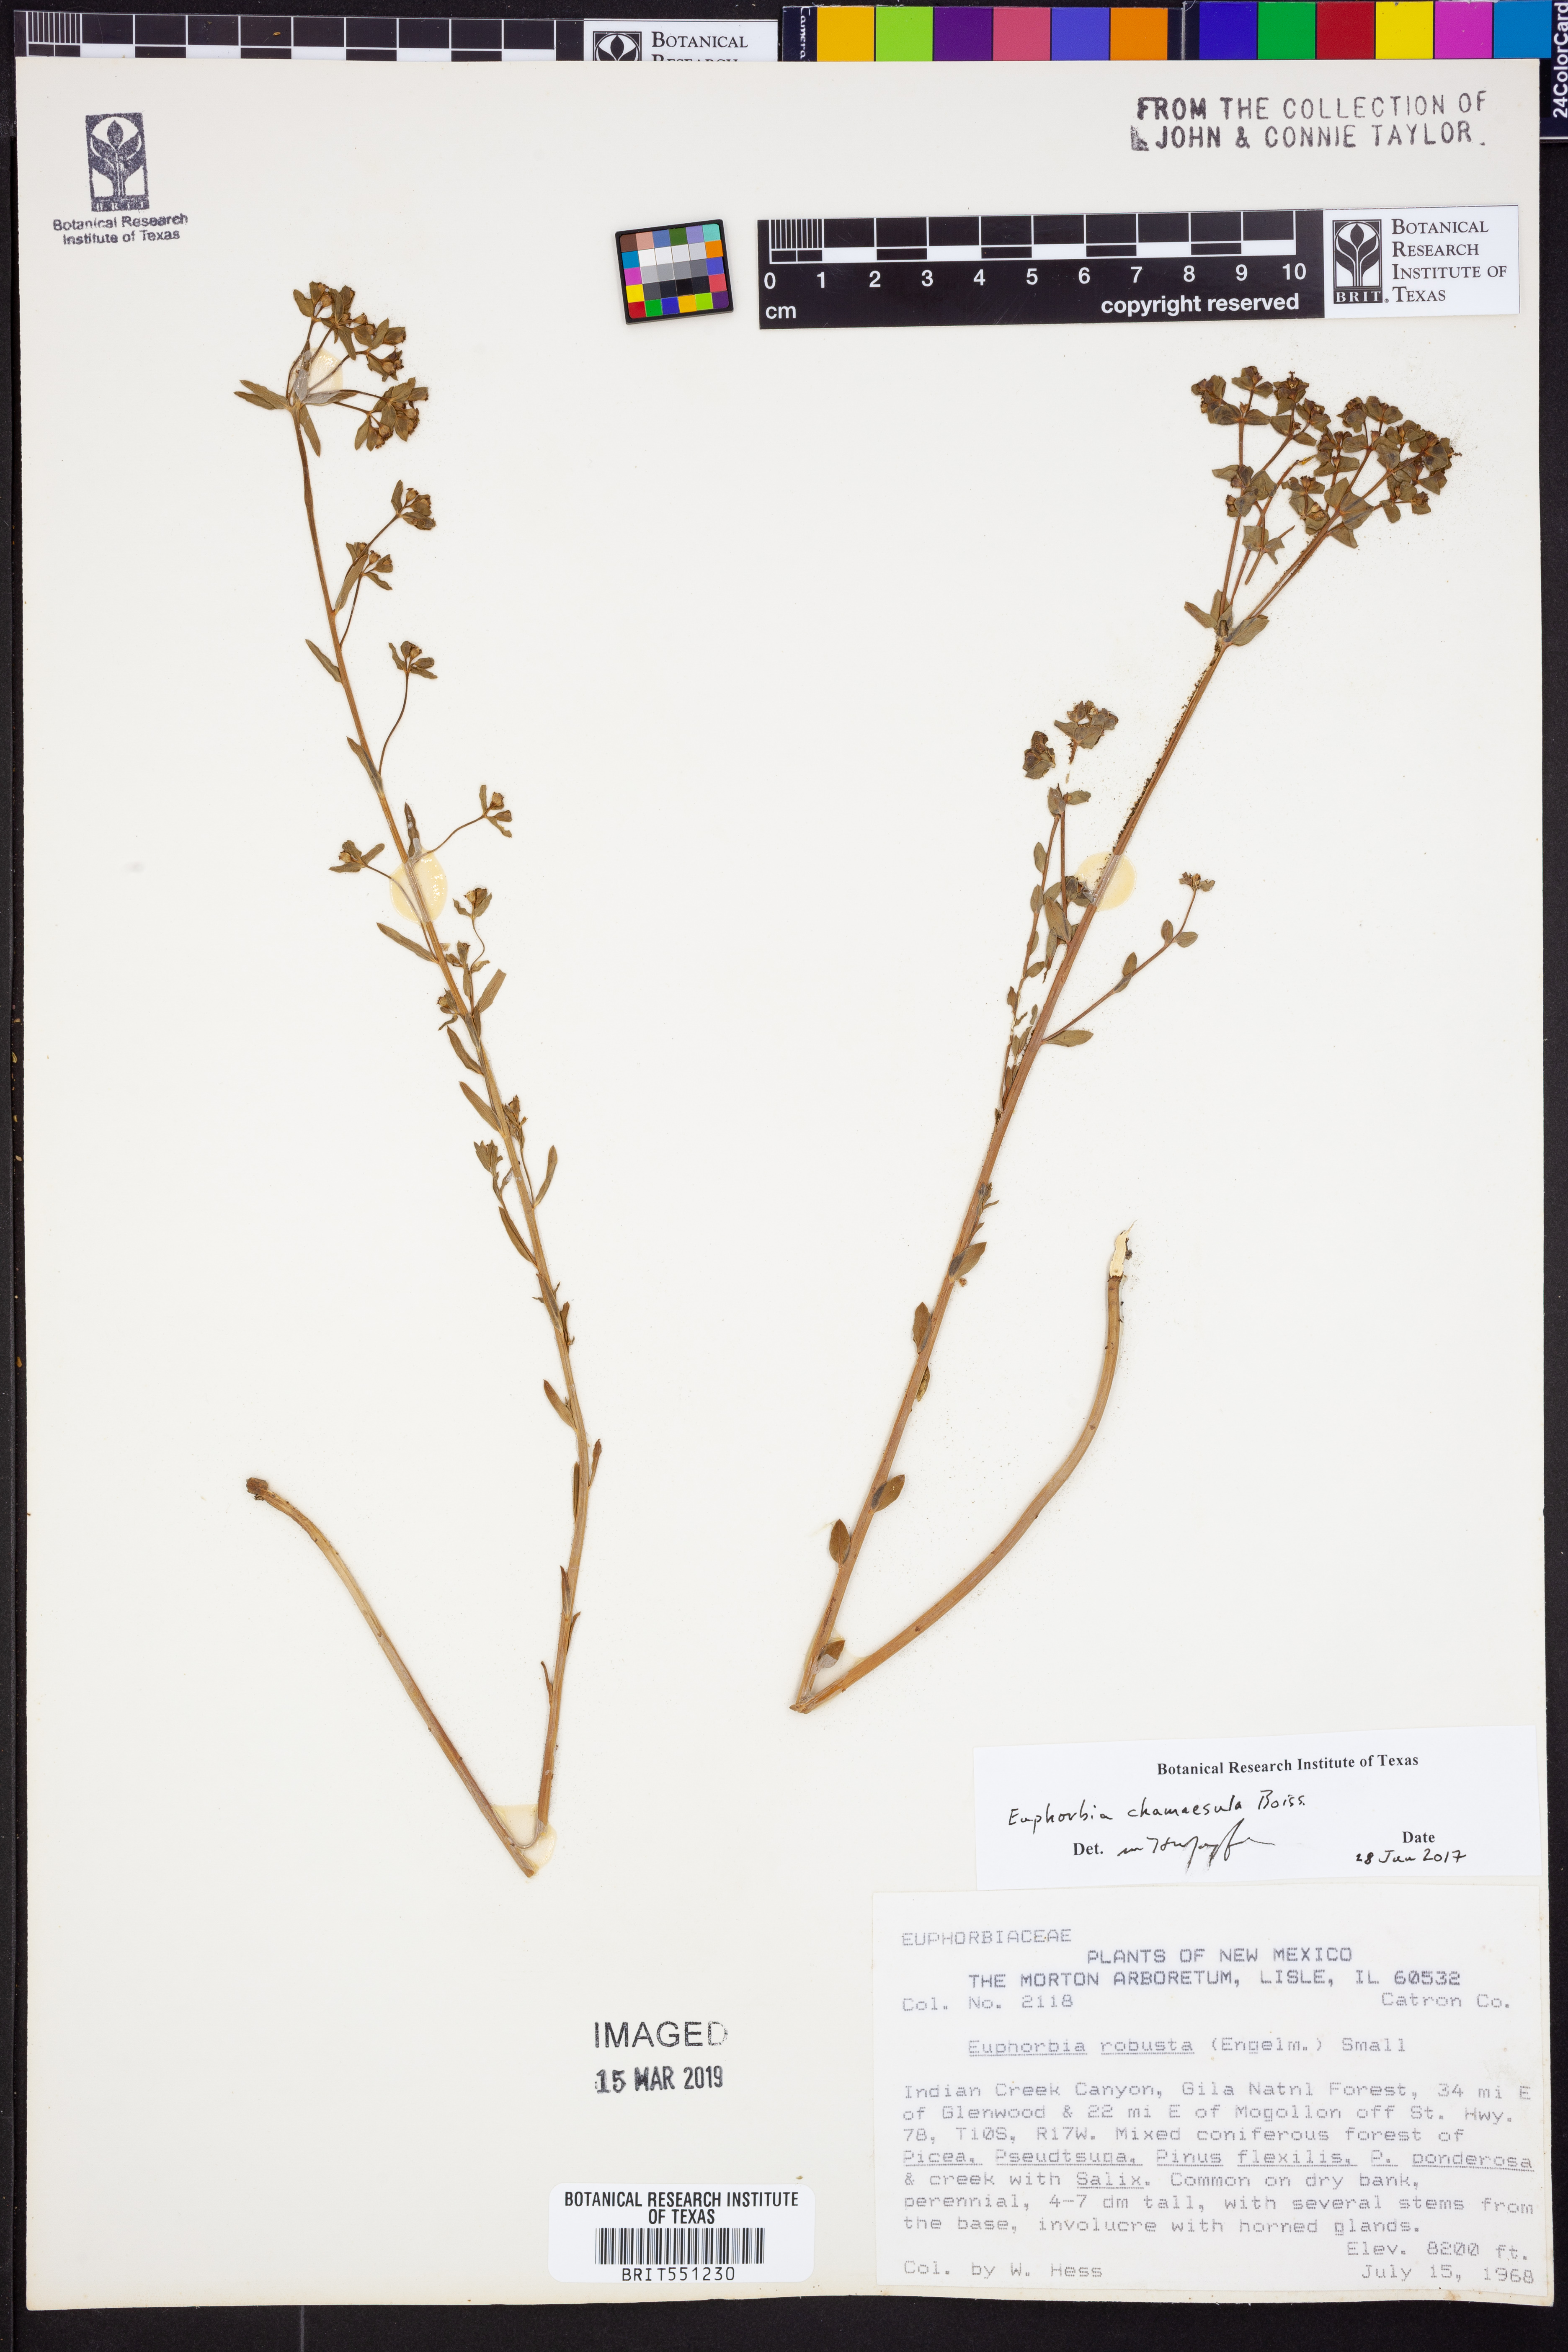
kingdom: Plantae
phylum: Tracheophyta
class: Magnoliopsida
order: Malpighiales
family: Euphorbiaceae
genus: Euphorbia
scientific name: Euphorbia chamaesula
